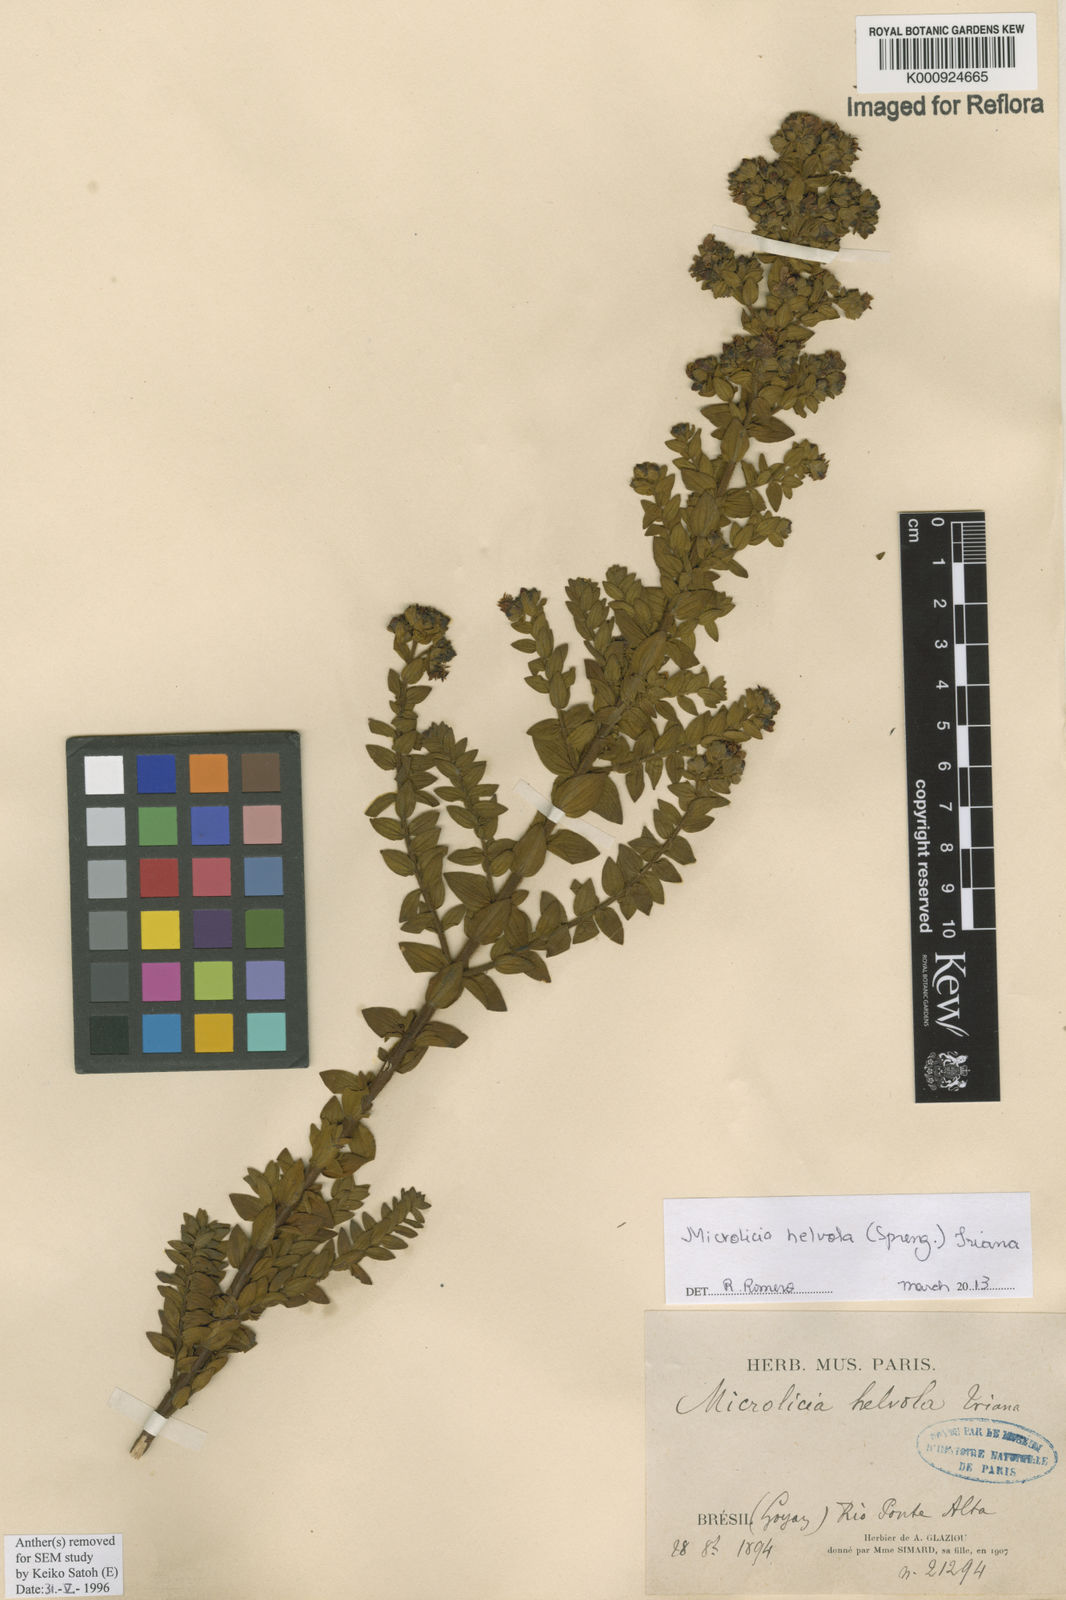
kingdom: Plantae
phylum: Tracheophyta
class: Magnoliopsida
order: Myrtales
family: Melastomataceae
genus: Microlicia
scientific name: Microlicia helvola
